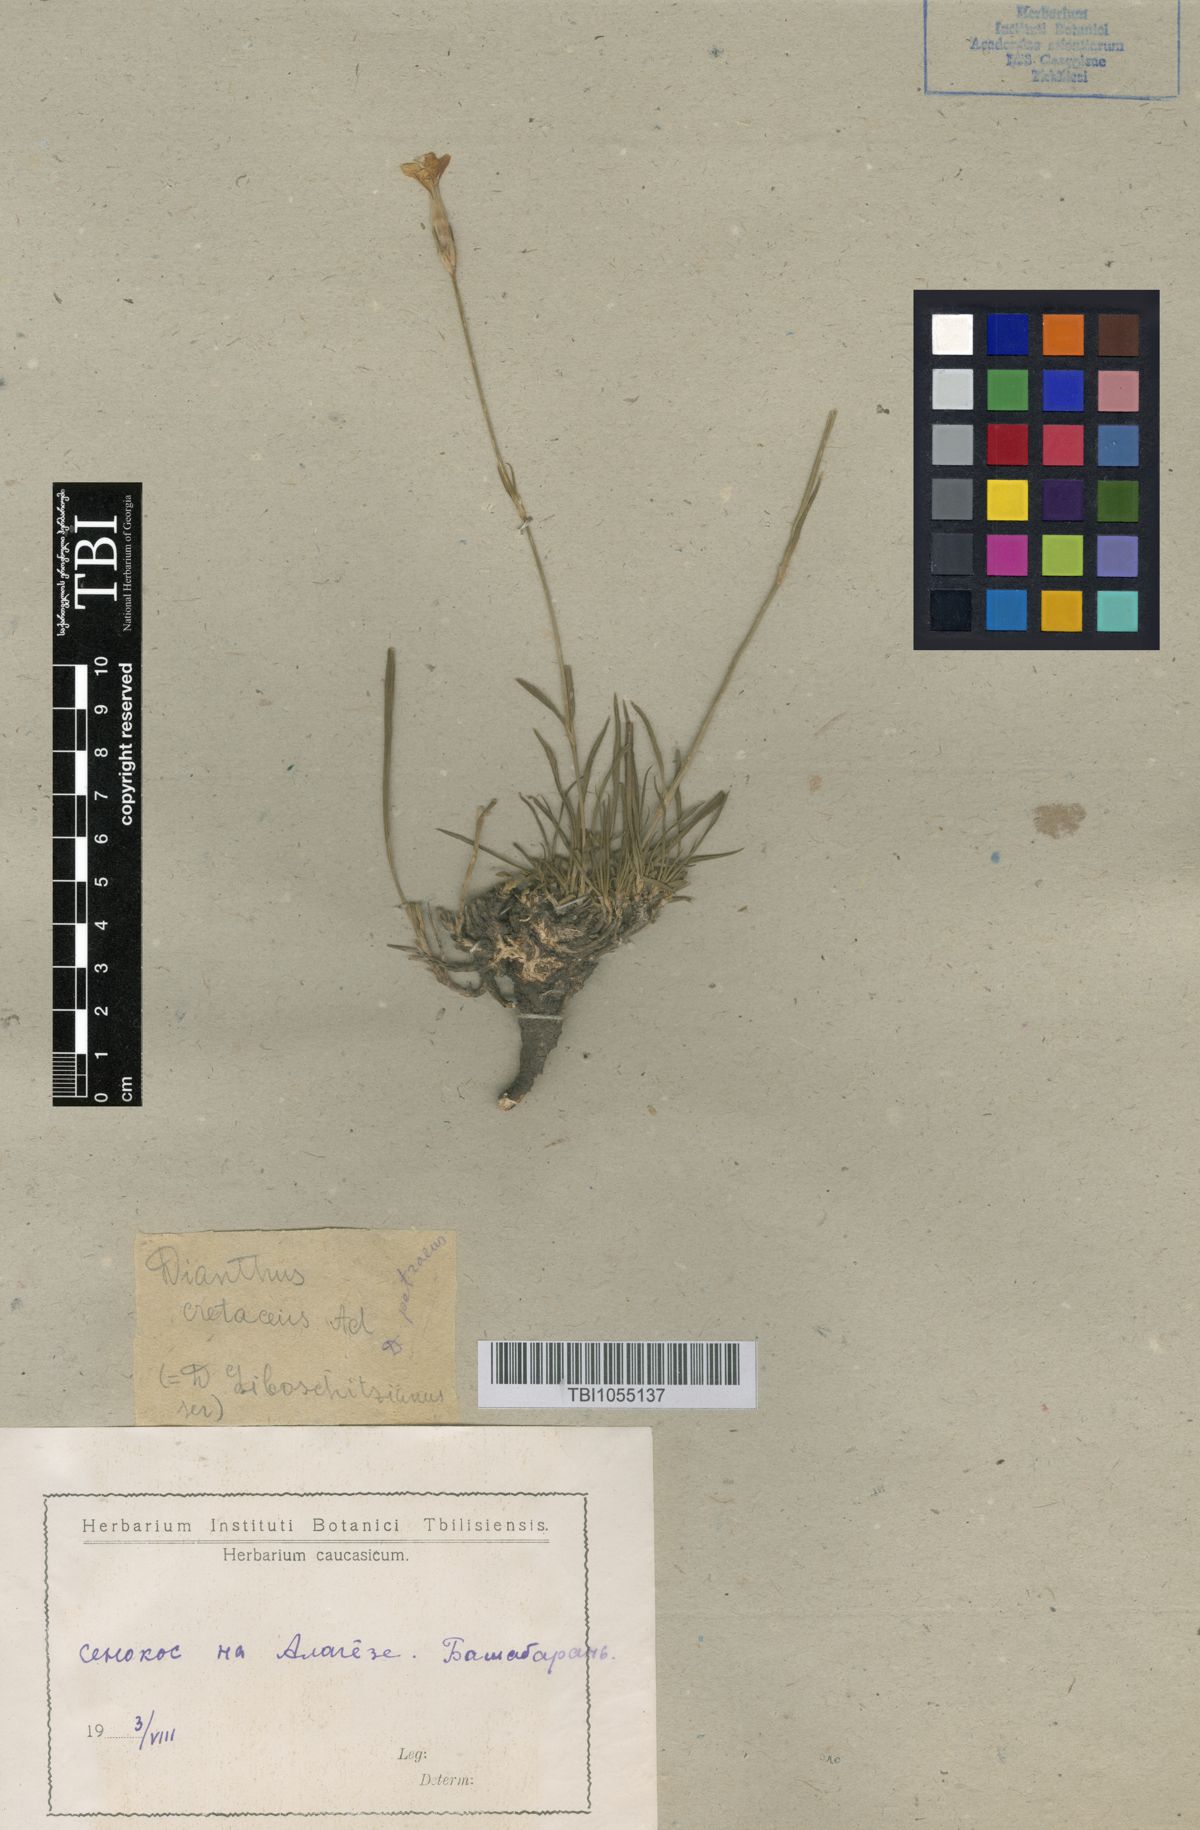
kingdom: Plantae
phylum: Tracheophyta
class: Magnoliopsida
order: Caryophyllales
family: Caryophyllaceae
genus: Dianthus
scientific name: Dianthus cretaceus
